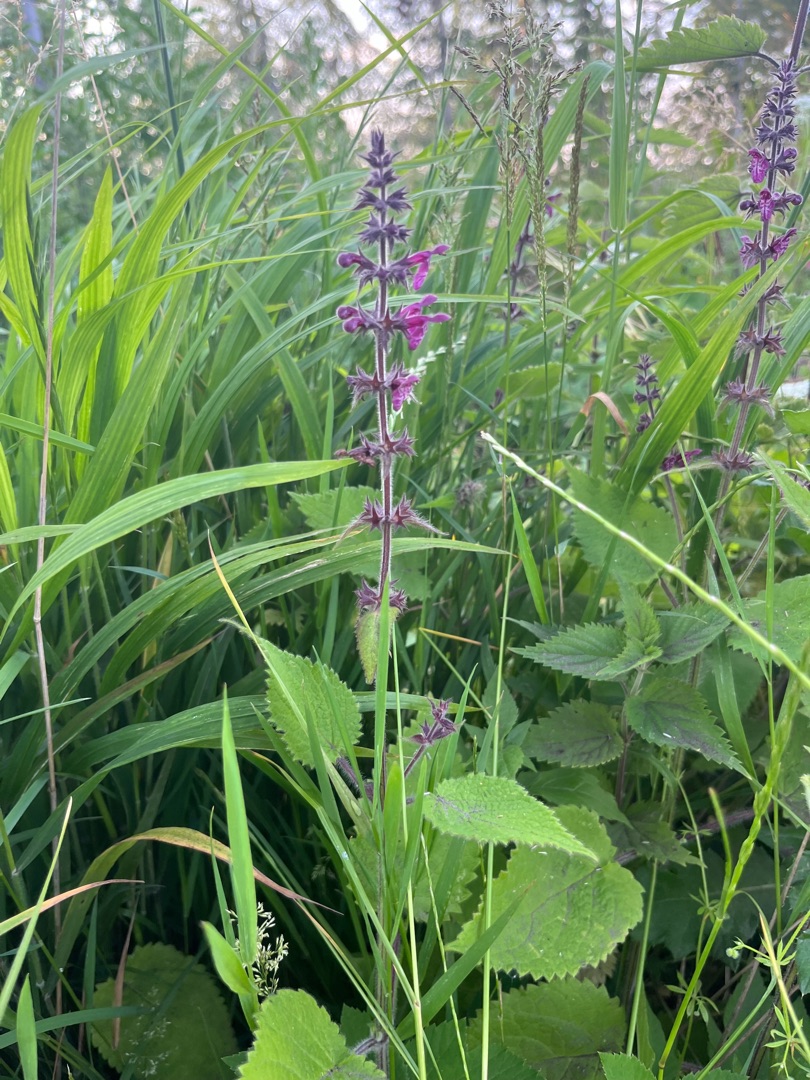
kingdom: Plantae
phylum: Tracheophyta
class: Magnoliopsida
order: Lamiales
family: Lamiaceae
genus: Stachys
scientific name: Stachys sylvatica
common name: Skov-galtetand
